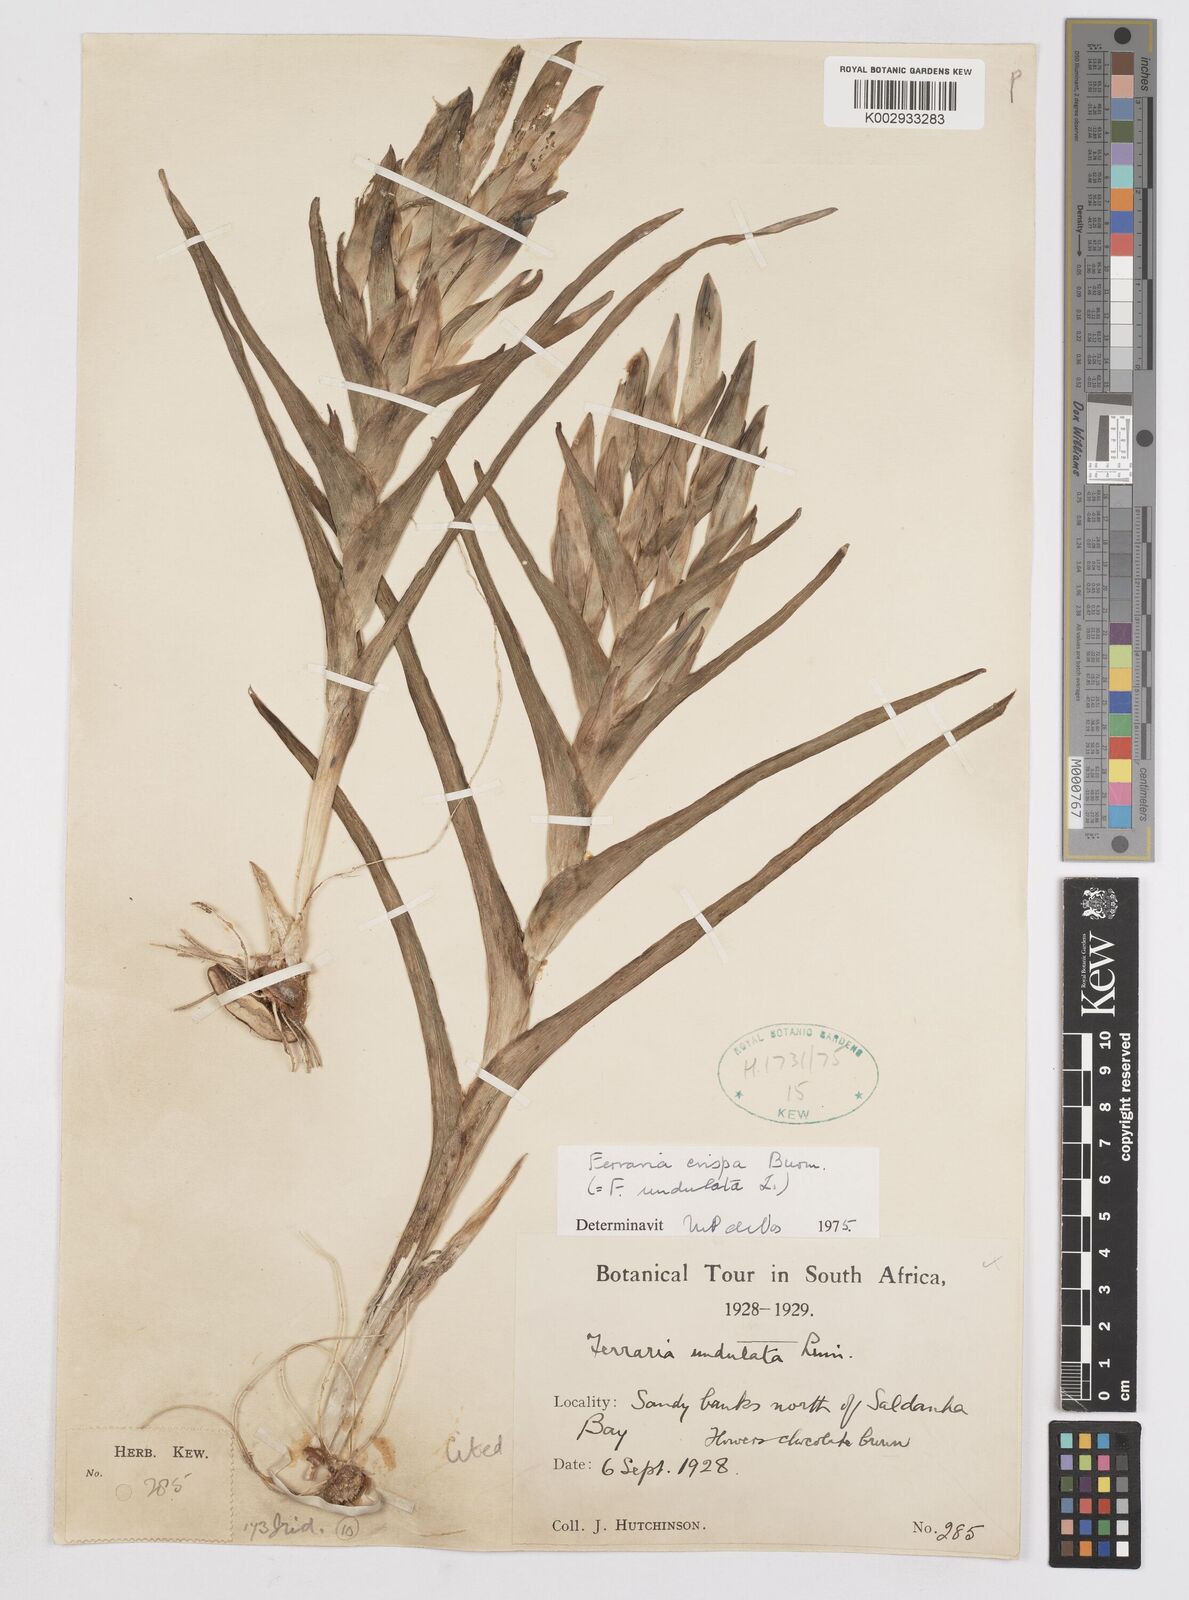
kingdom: Plantae
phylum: Tracheophyta
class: Liliopsida
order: Asparagales
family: Iridaceae
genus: Ferraria
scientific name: Ferraria crispa
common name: Black-flag
